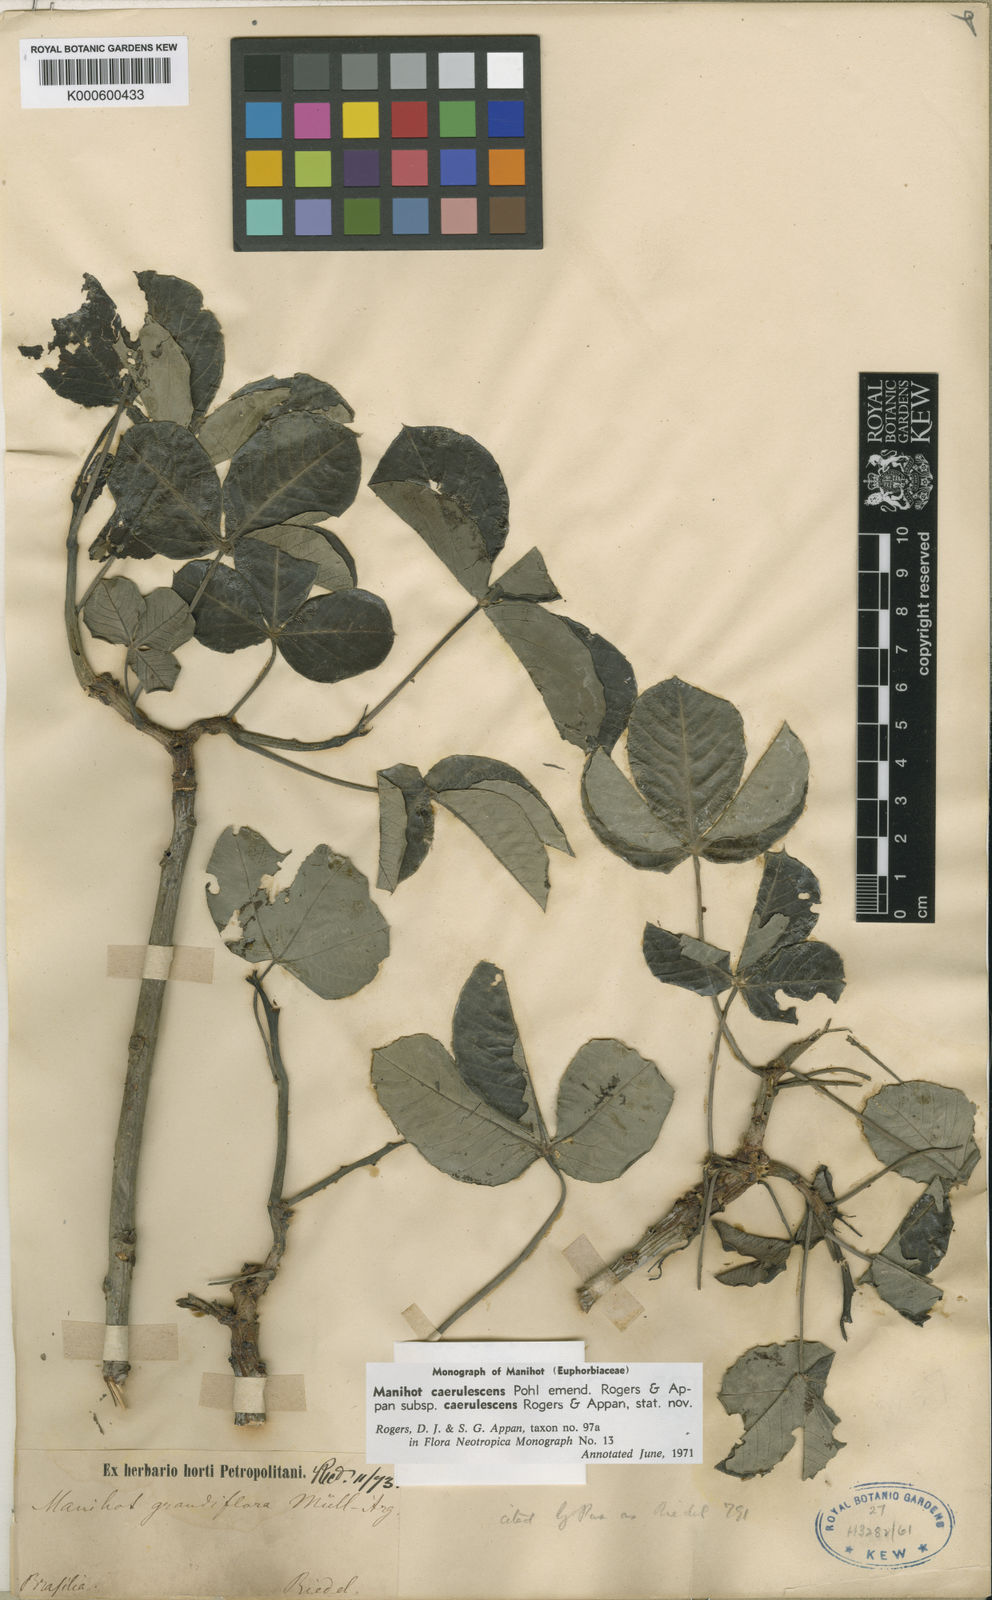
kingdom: Plantae
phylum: Tracheophyta
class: Magnoliopsida
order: Malpighiales
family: Euphorbiaceae
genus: Manihot
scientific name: Manihot caerulescens
